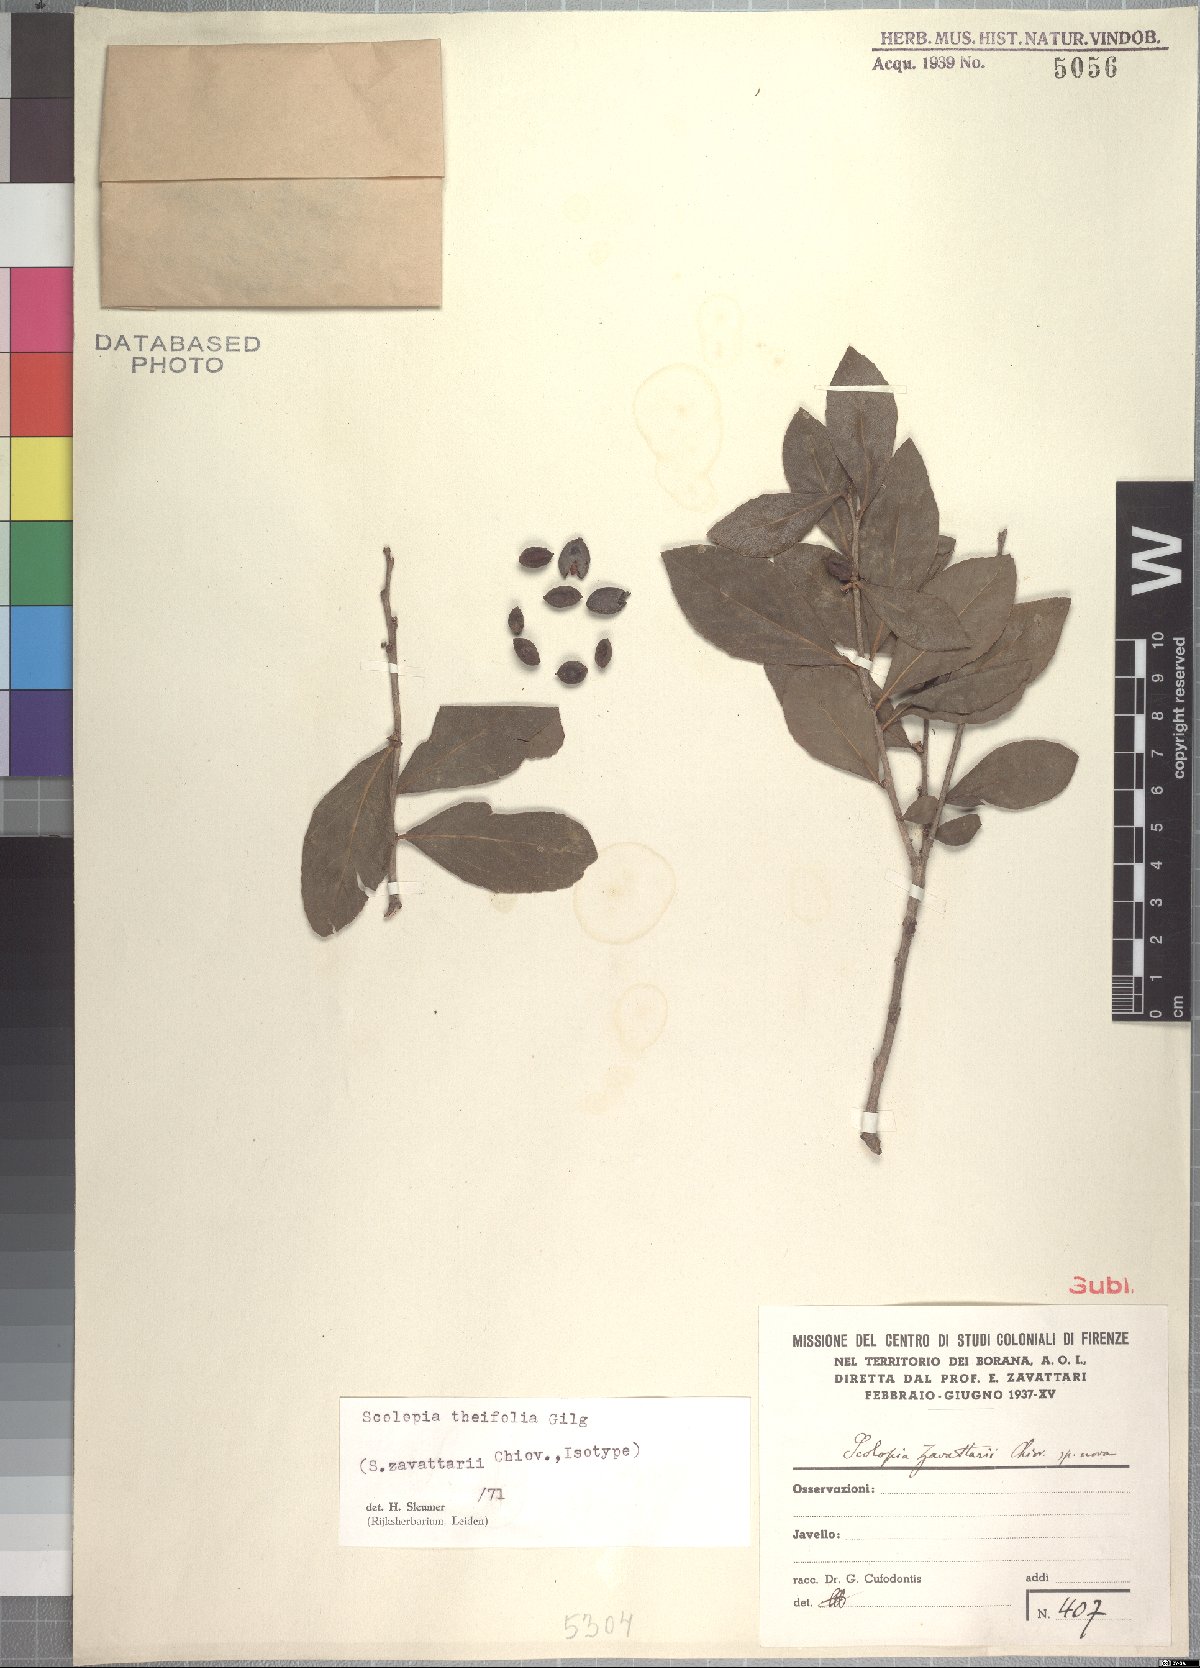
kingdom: Plantae
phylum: Tracheophyta
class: Magnoliopsida
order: Malpighiales
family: Salicaceae
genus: Scolopia
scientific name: Scolopia theifolia
